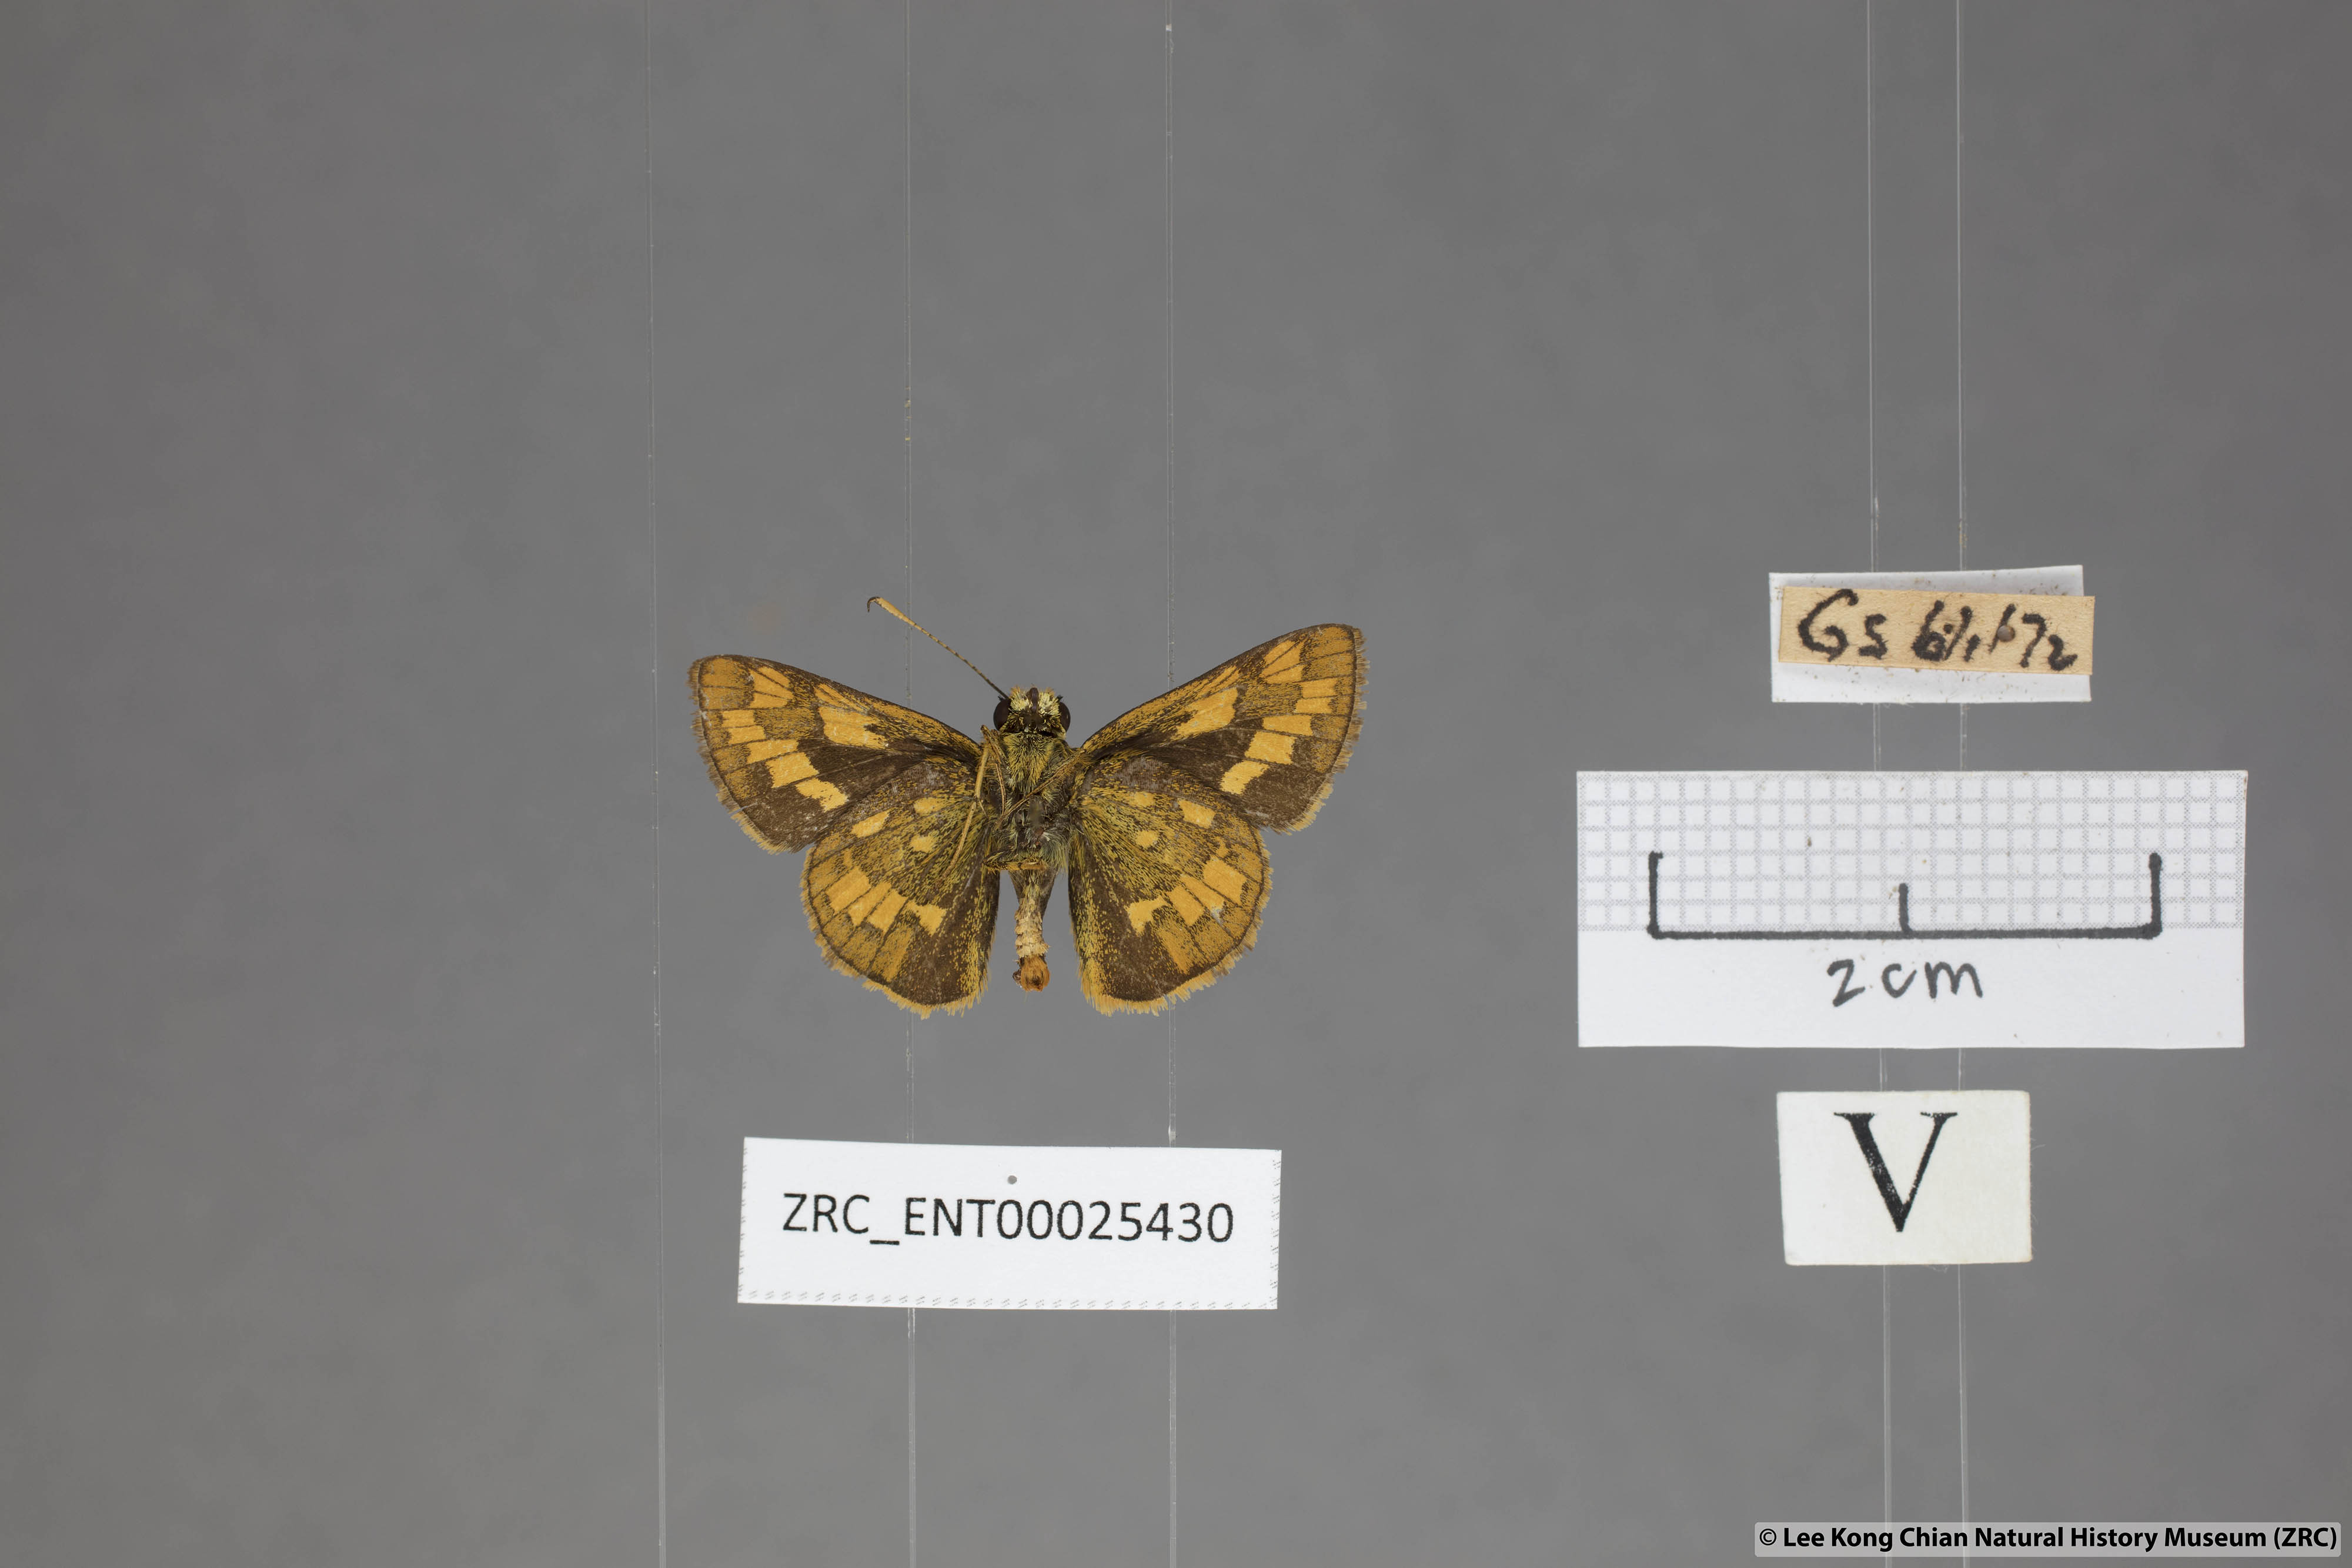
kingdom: Animalia
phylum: Arthropoda
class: Insecta
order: Lepidoptera
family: Hesperiidae
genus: Potanthus
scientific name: Potanthus omaha
